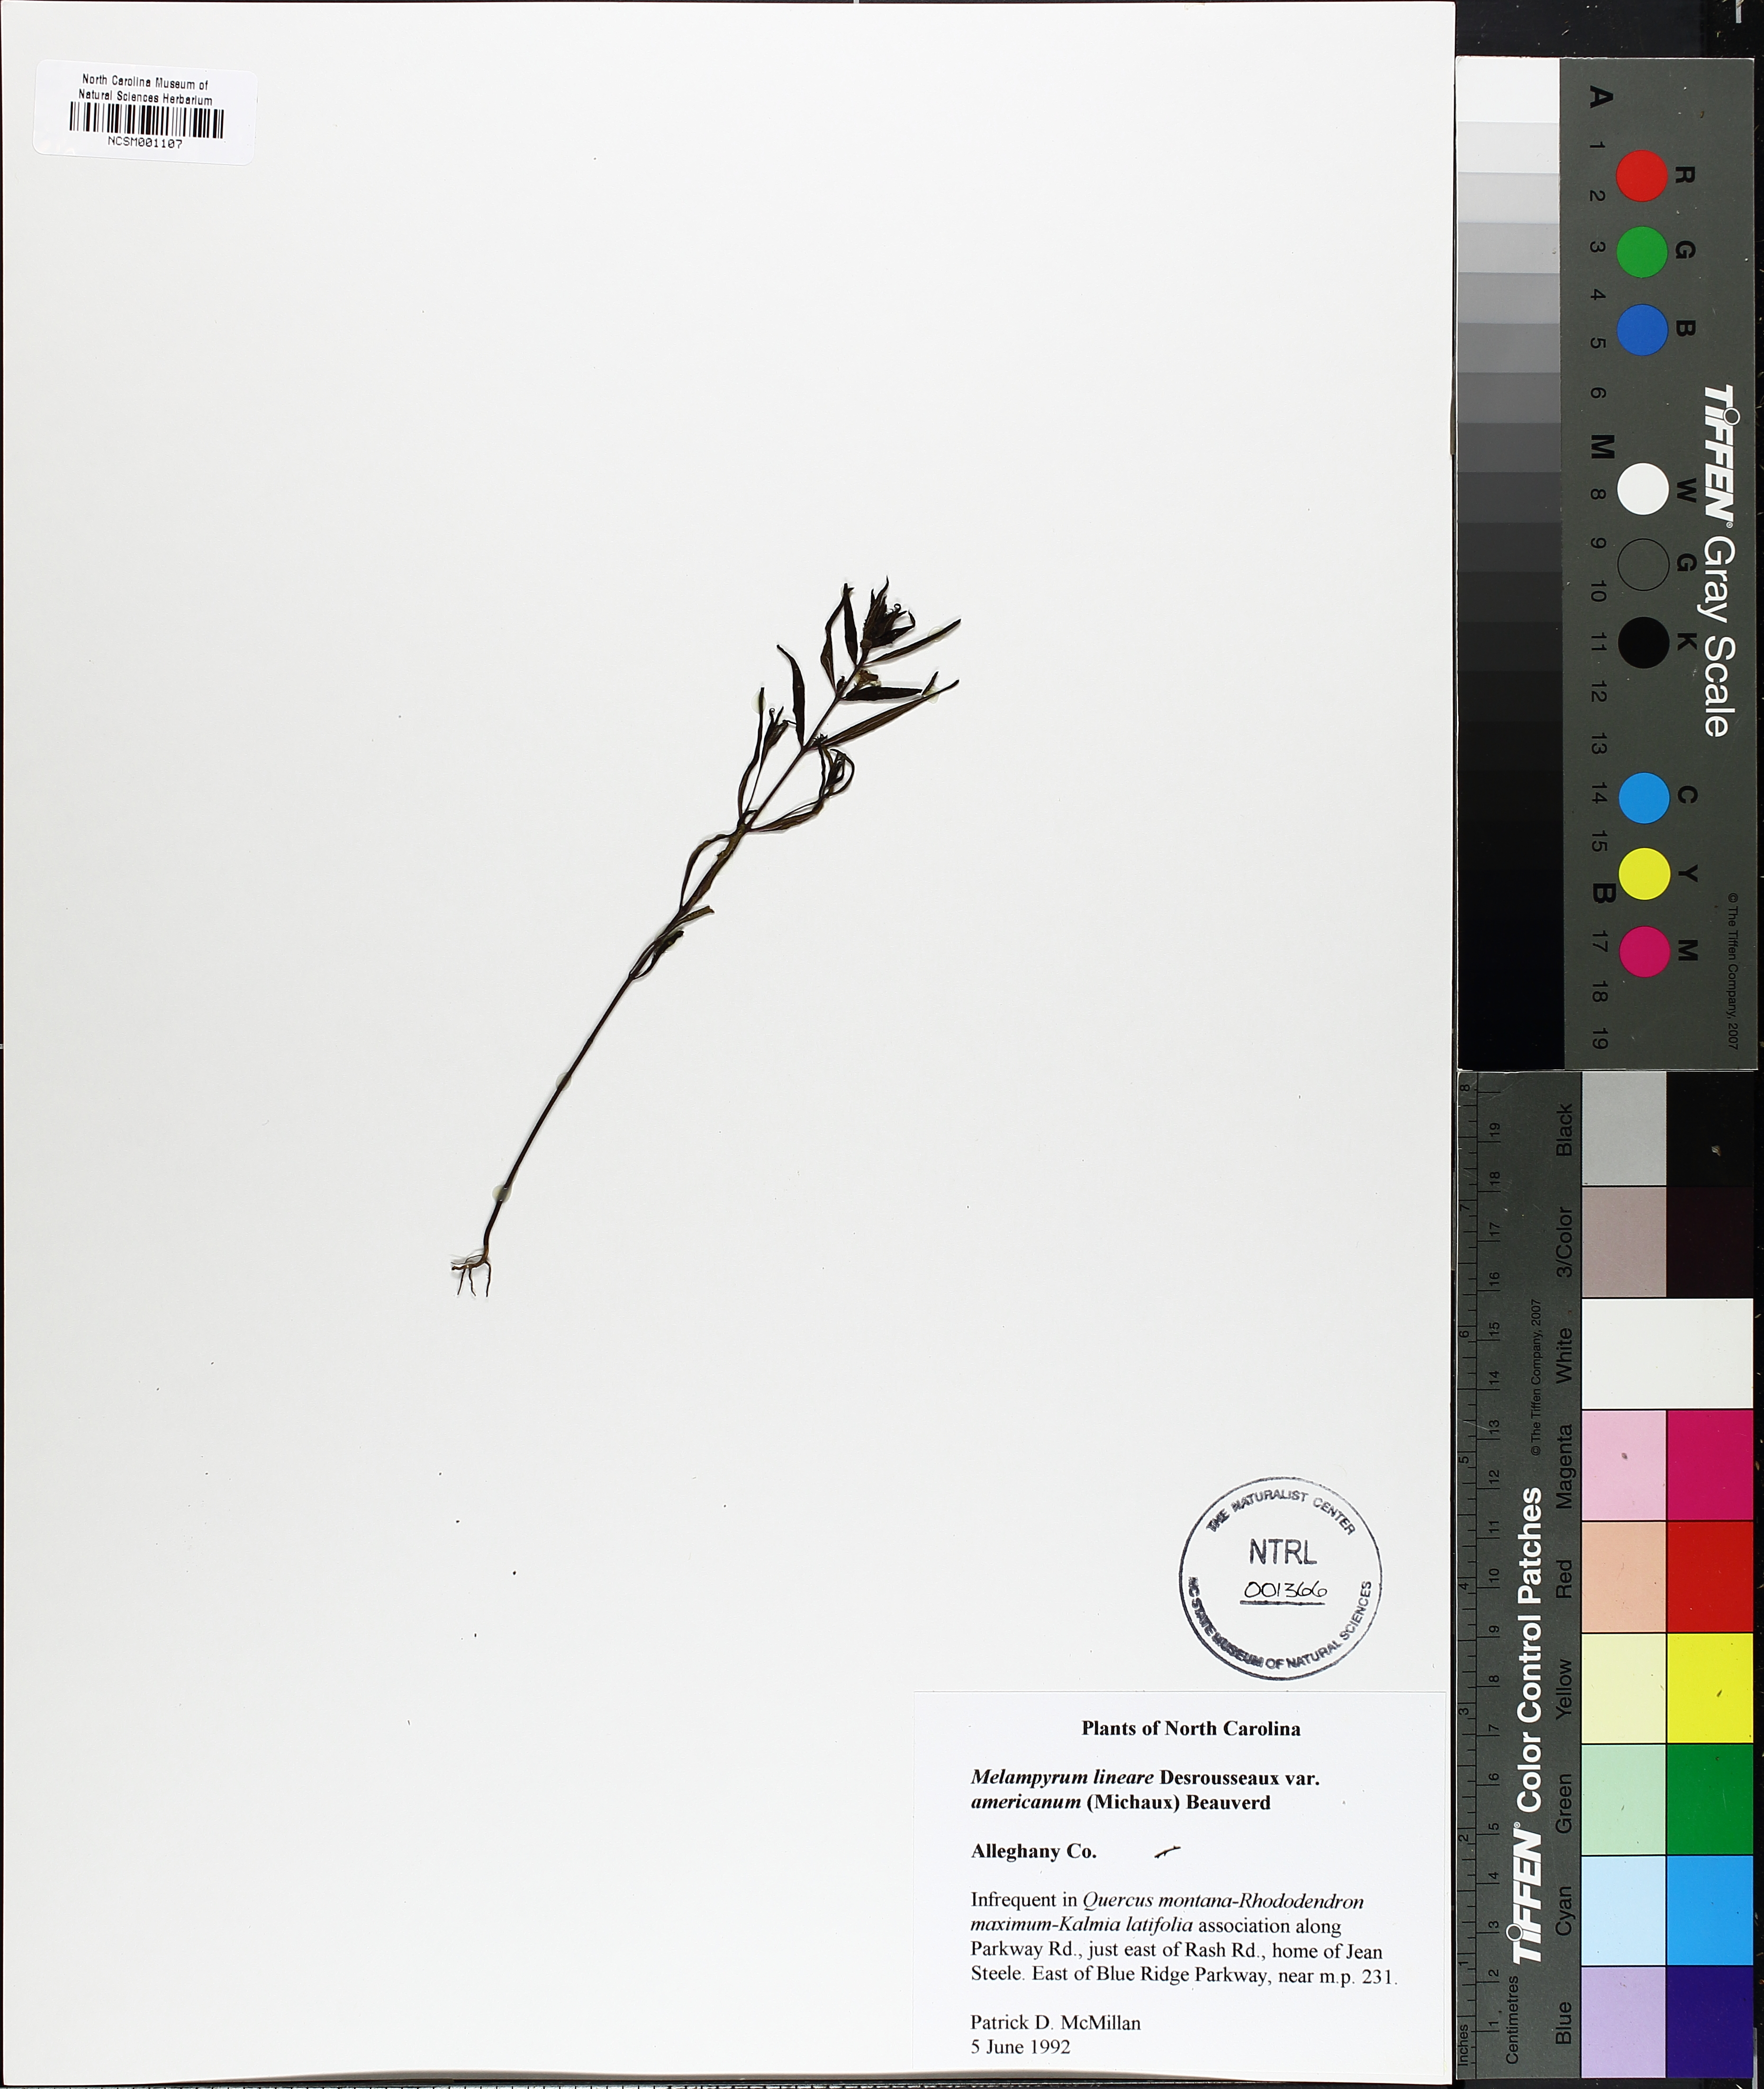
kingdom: Plantae
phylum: Tracheophyta
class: Magnoliopsida
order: Lamiales
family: Orobanchaceae
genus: Melampyrum
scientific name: Melampyrum lineare
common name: American cow-wheat
